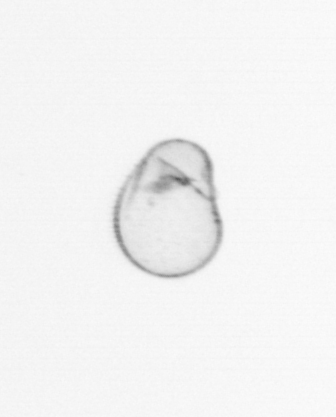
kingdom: Chromista
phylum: Myzozoa
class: Dinophyceae
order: Noctilucales
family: Noctilucaceae
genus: Noctiluca
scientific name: Noctiluca scintillans
